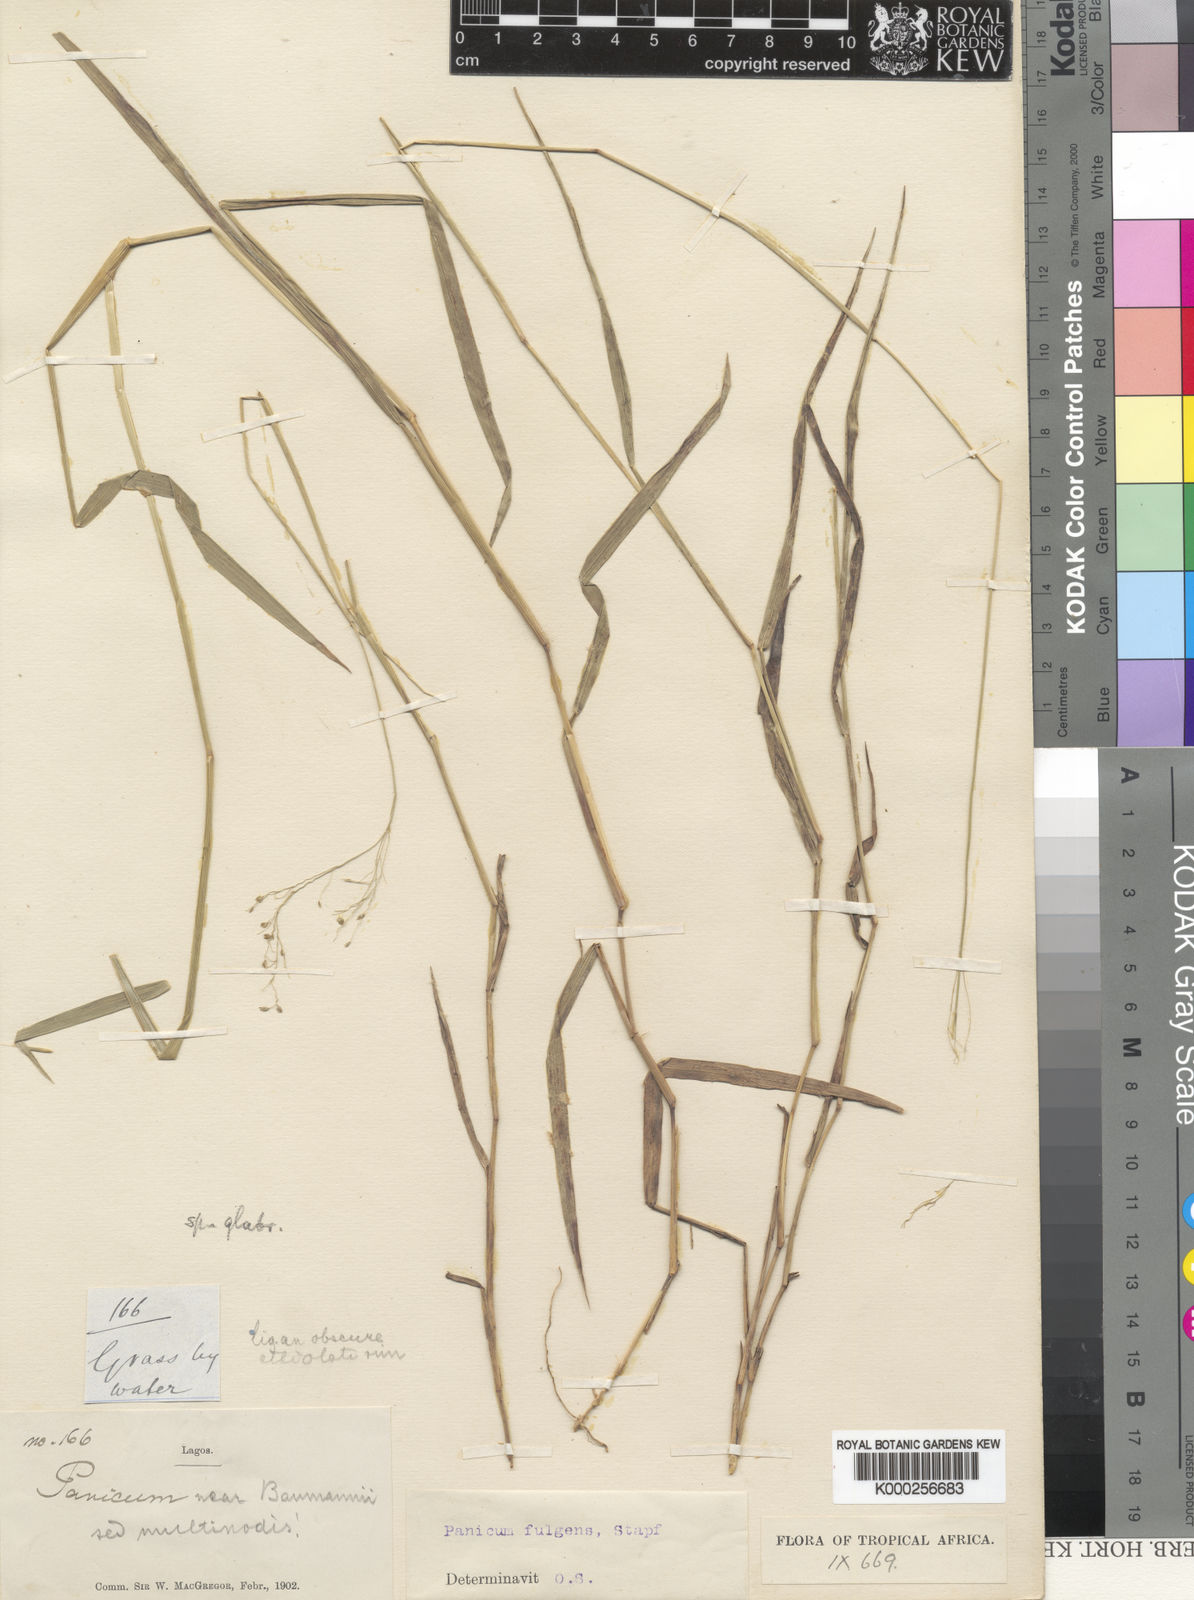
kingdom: Plantae
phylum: Tracheophyta
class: Liliopsida
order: Poales
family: Poaceae
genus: Trichanthecium
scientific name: Trichanthecium nervatum
